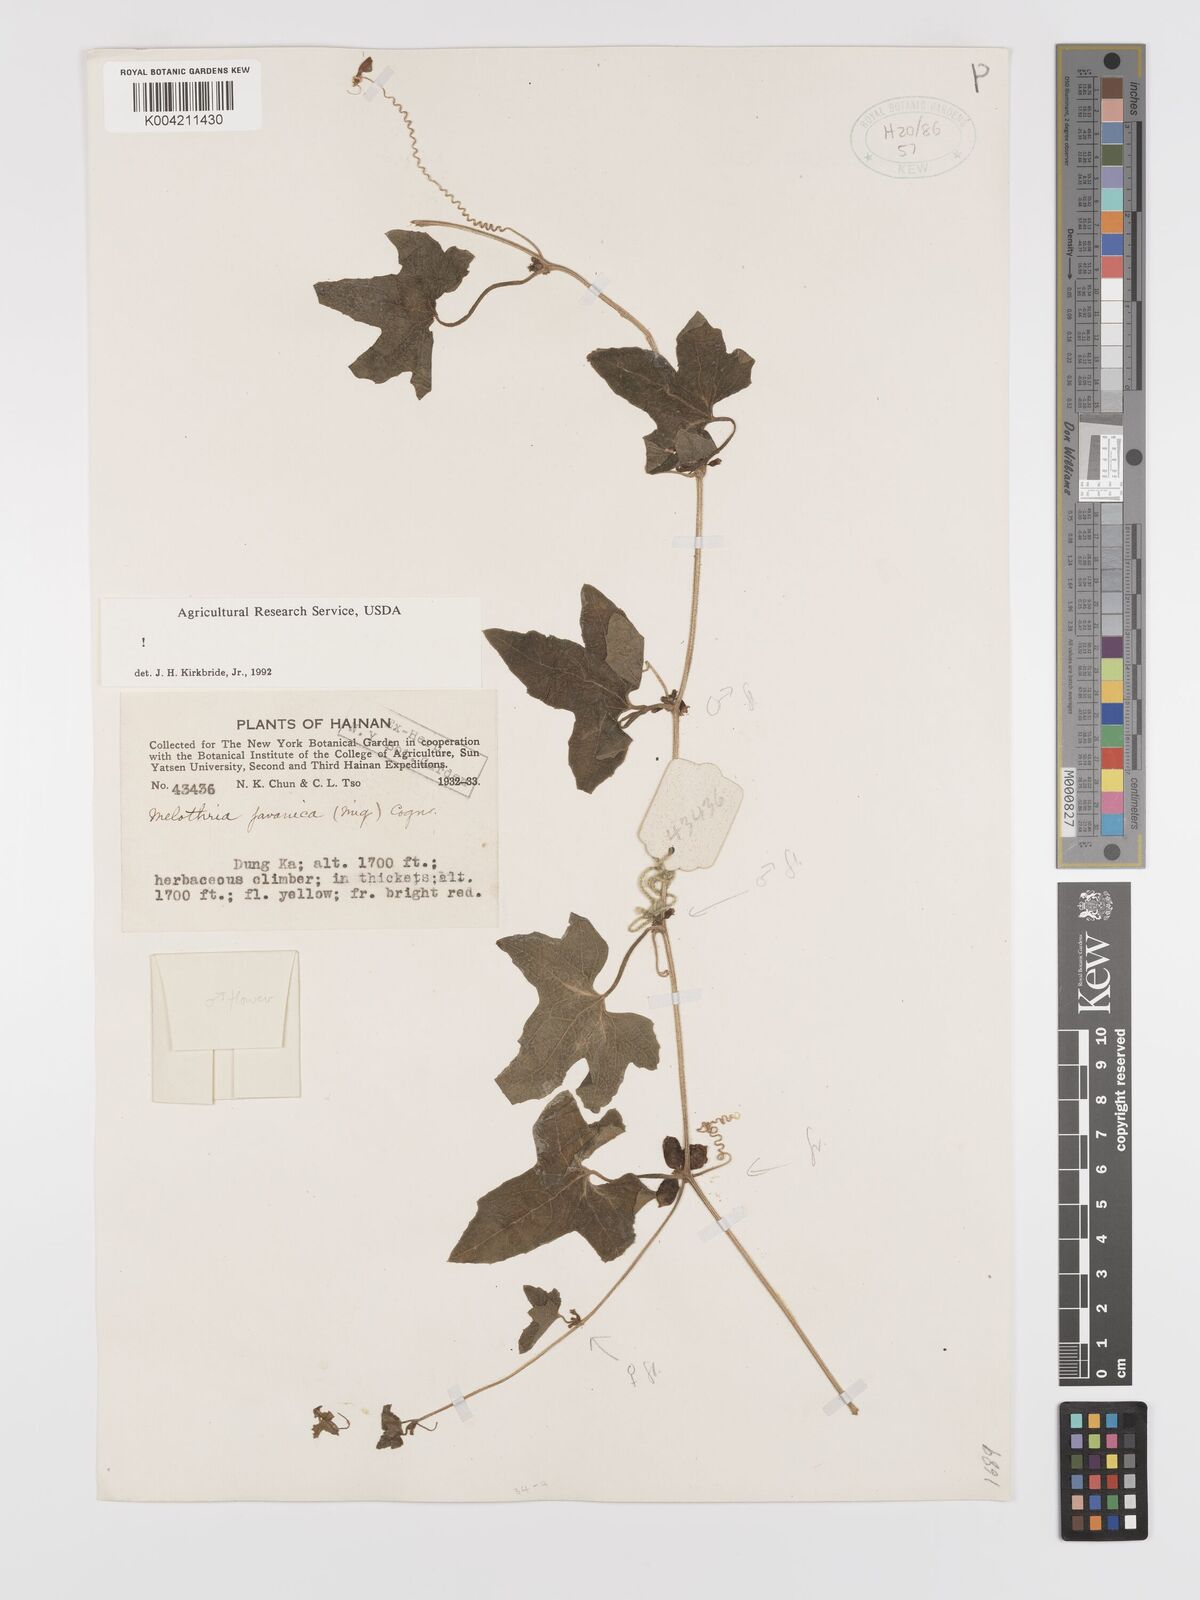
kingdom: Plantae
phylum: Tracheophyta
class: Magnoliopsida
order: Cucurbitales
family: Cucurbitaceae
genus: Cucumis
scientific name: Cucumis javanicus
